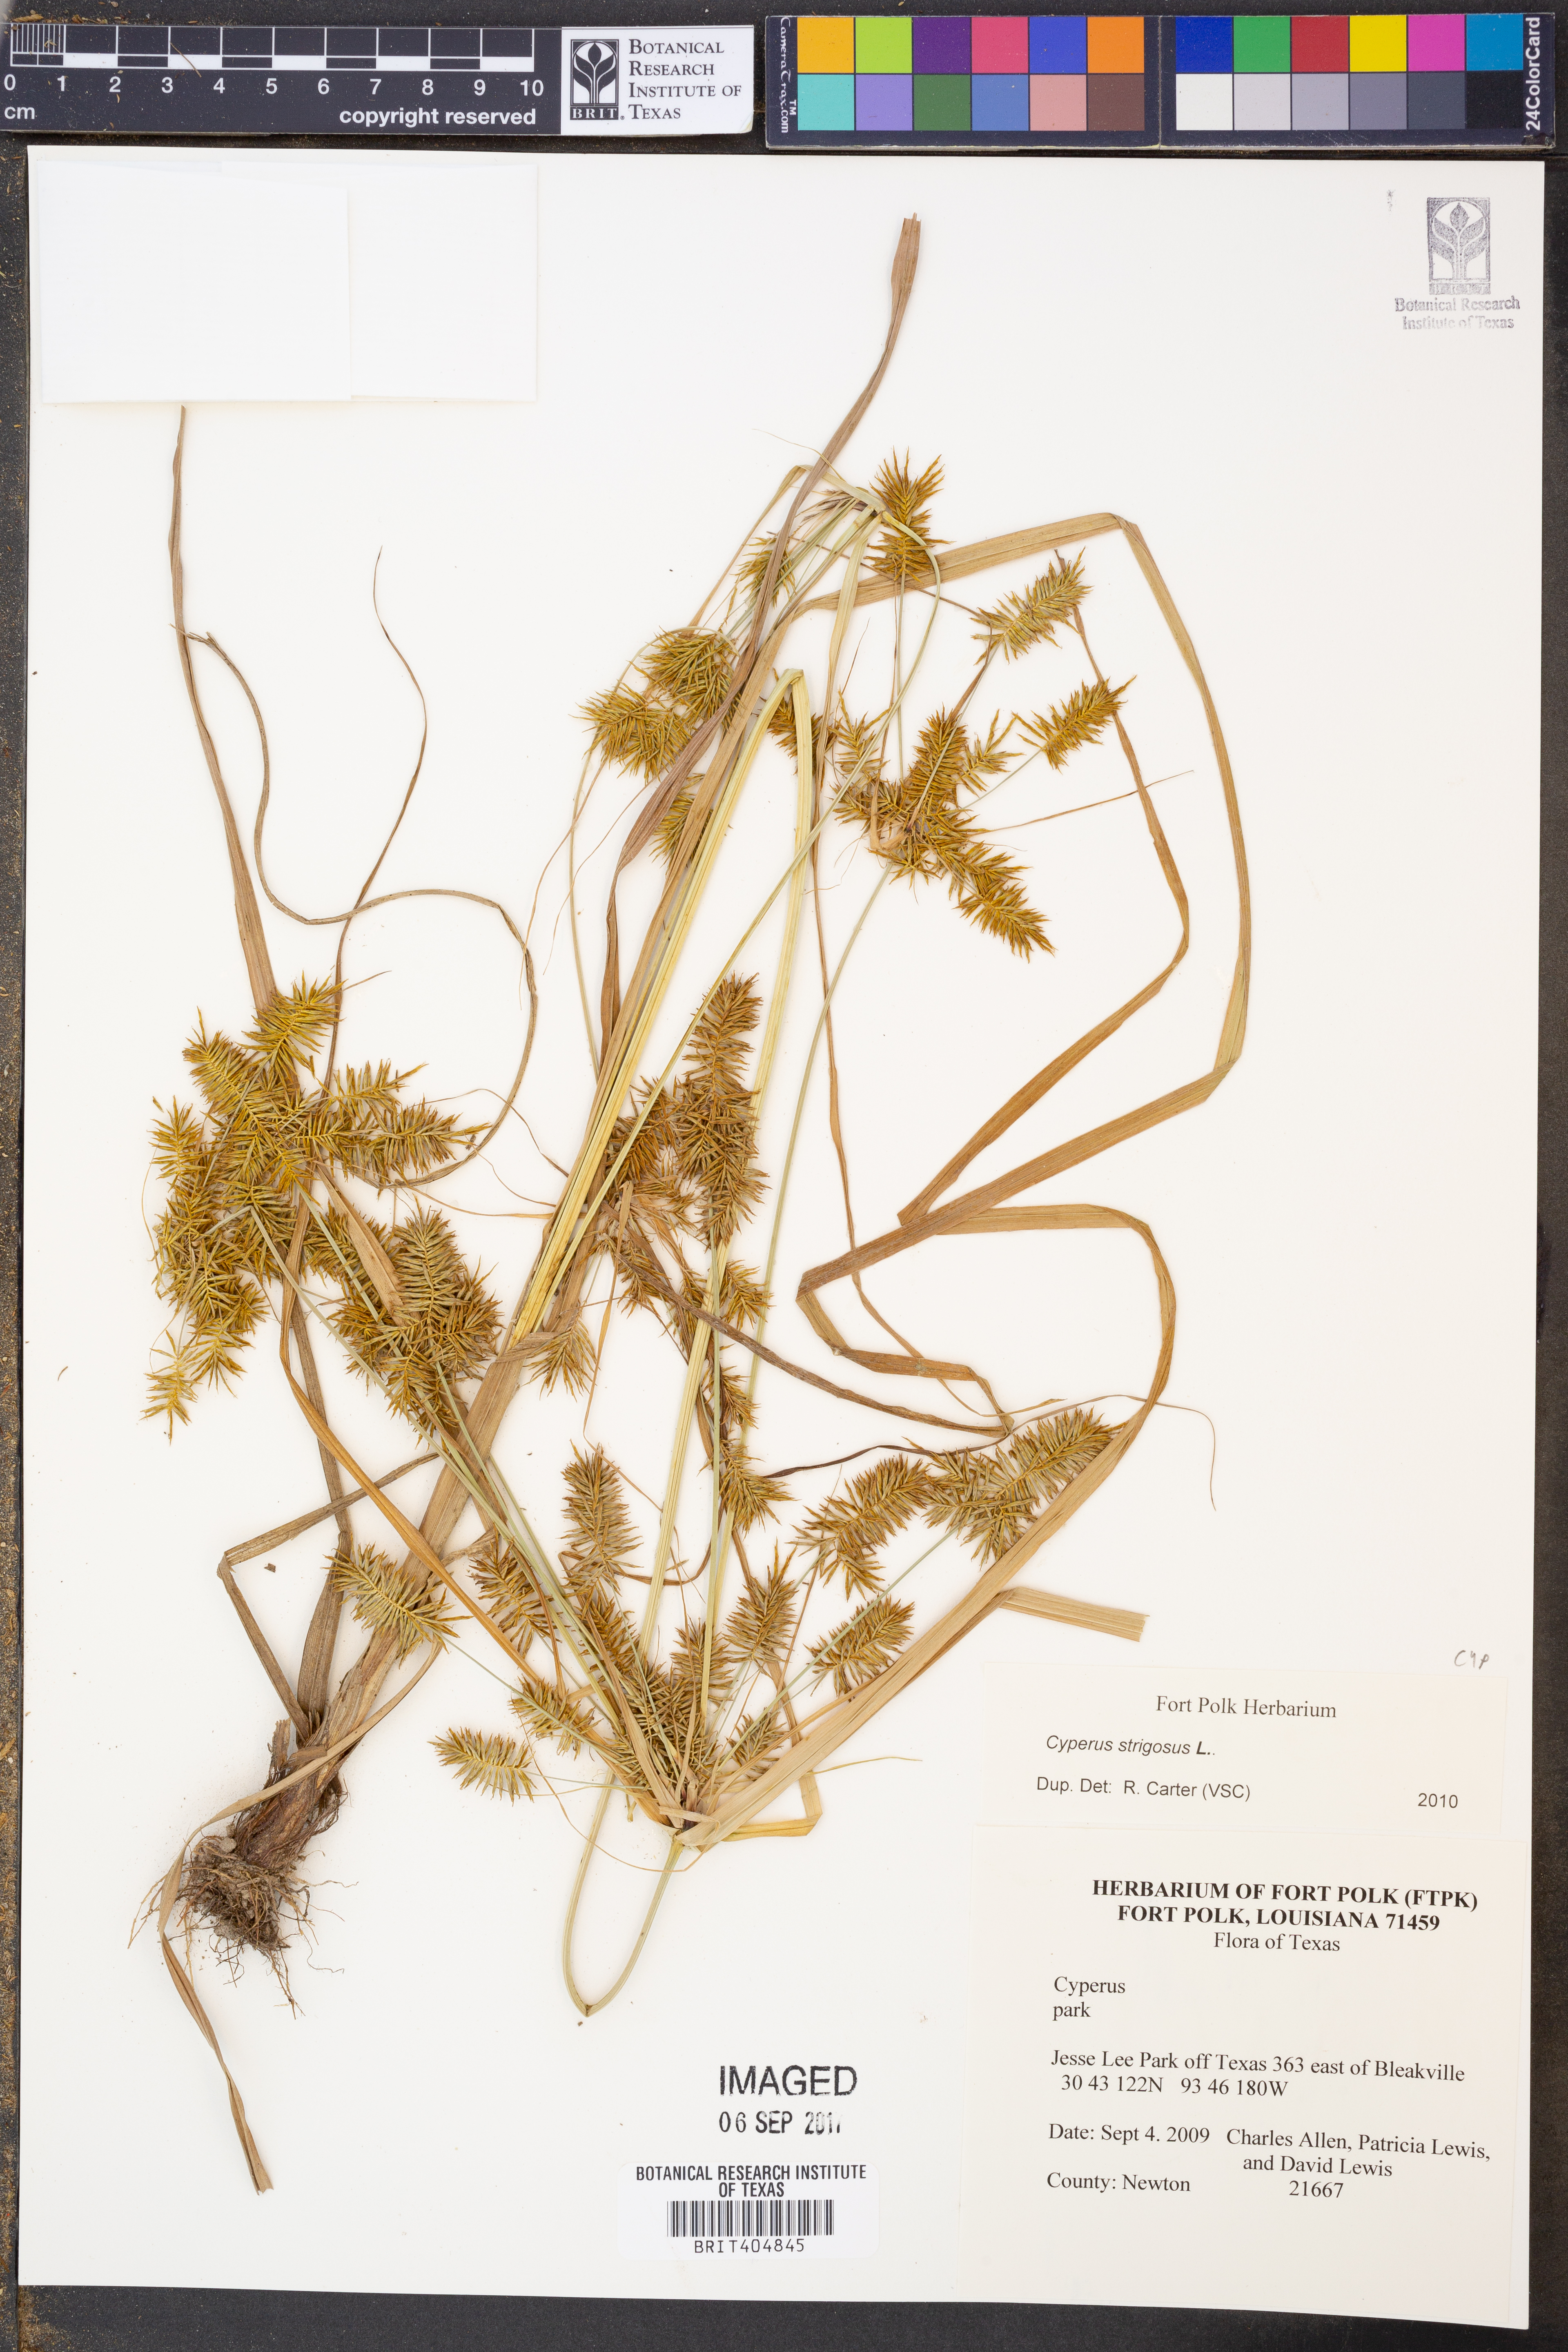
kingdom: Plantae
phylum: Tracheophyta
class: Liliopsida
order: Poales
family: Cyperaceae
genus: Cyperus
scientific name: Cyperus strigosus
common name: False nutsedge
